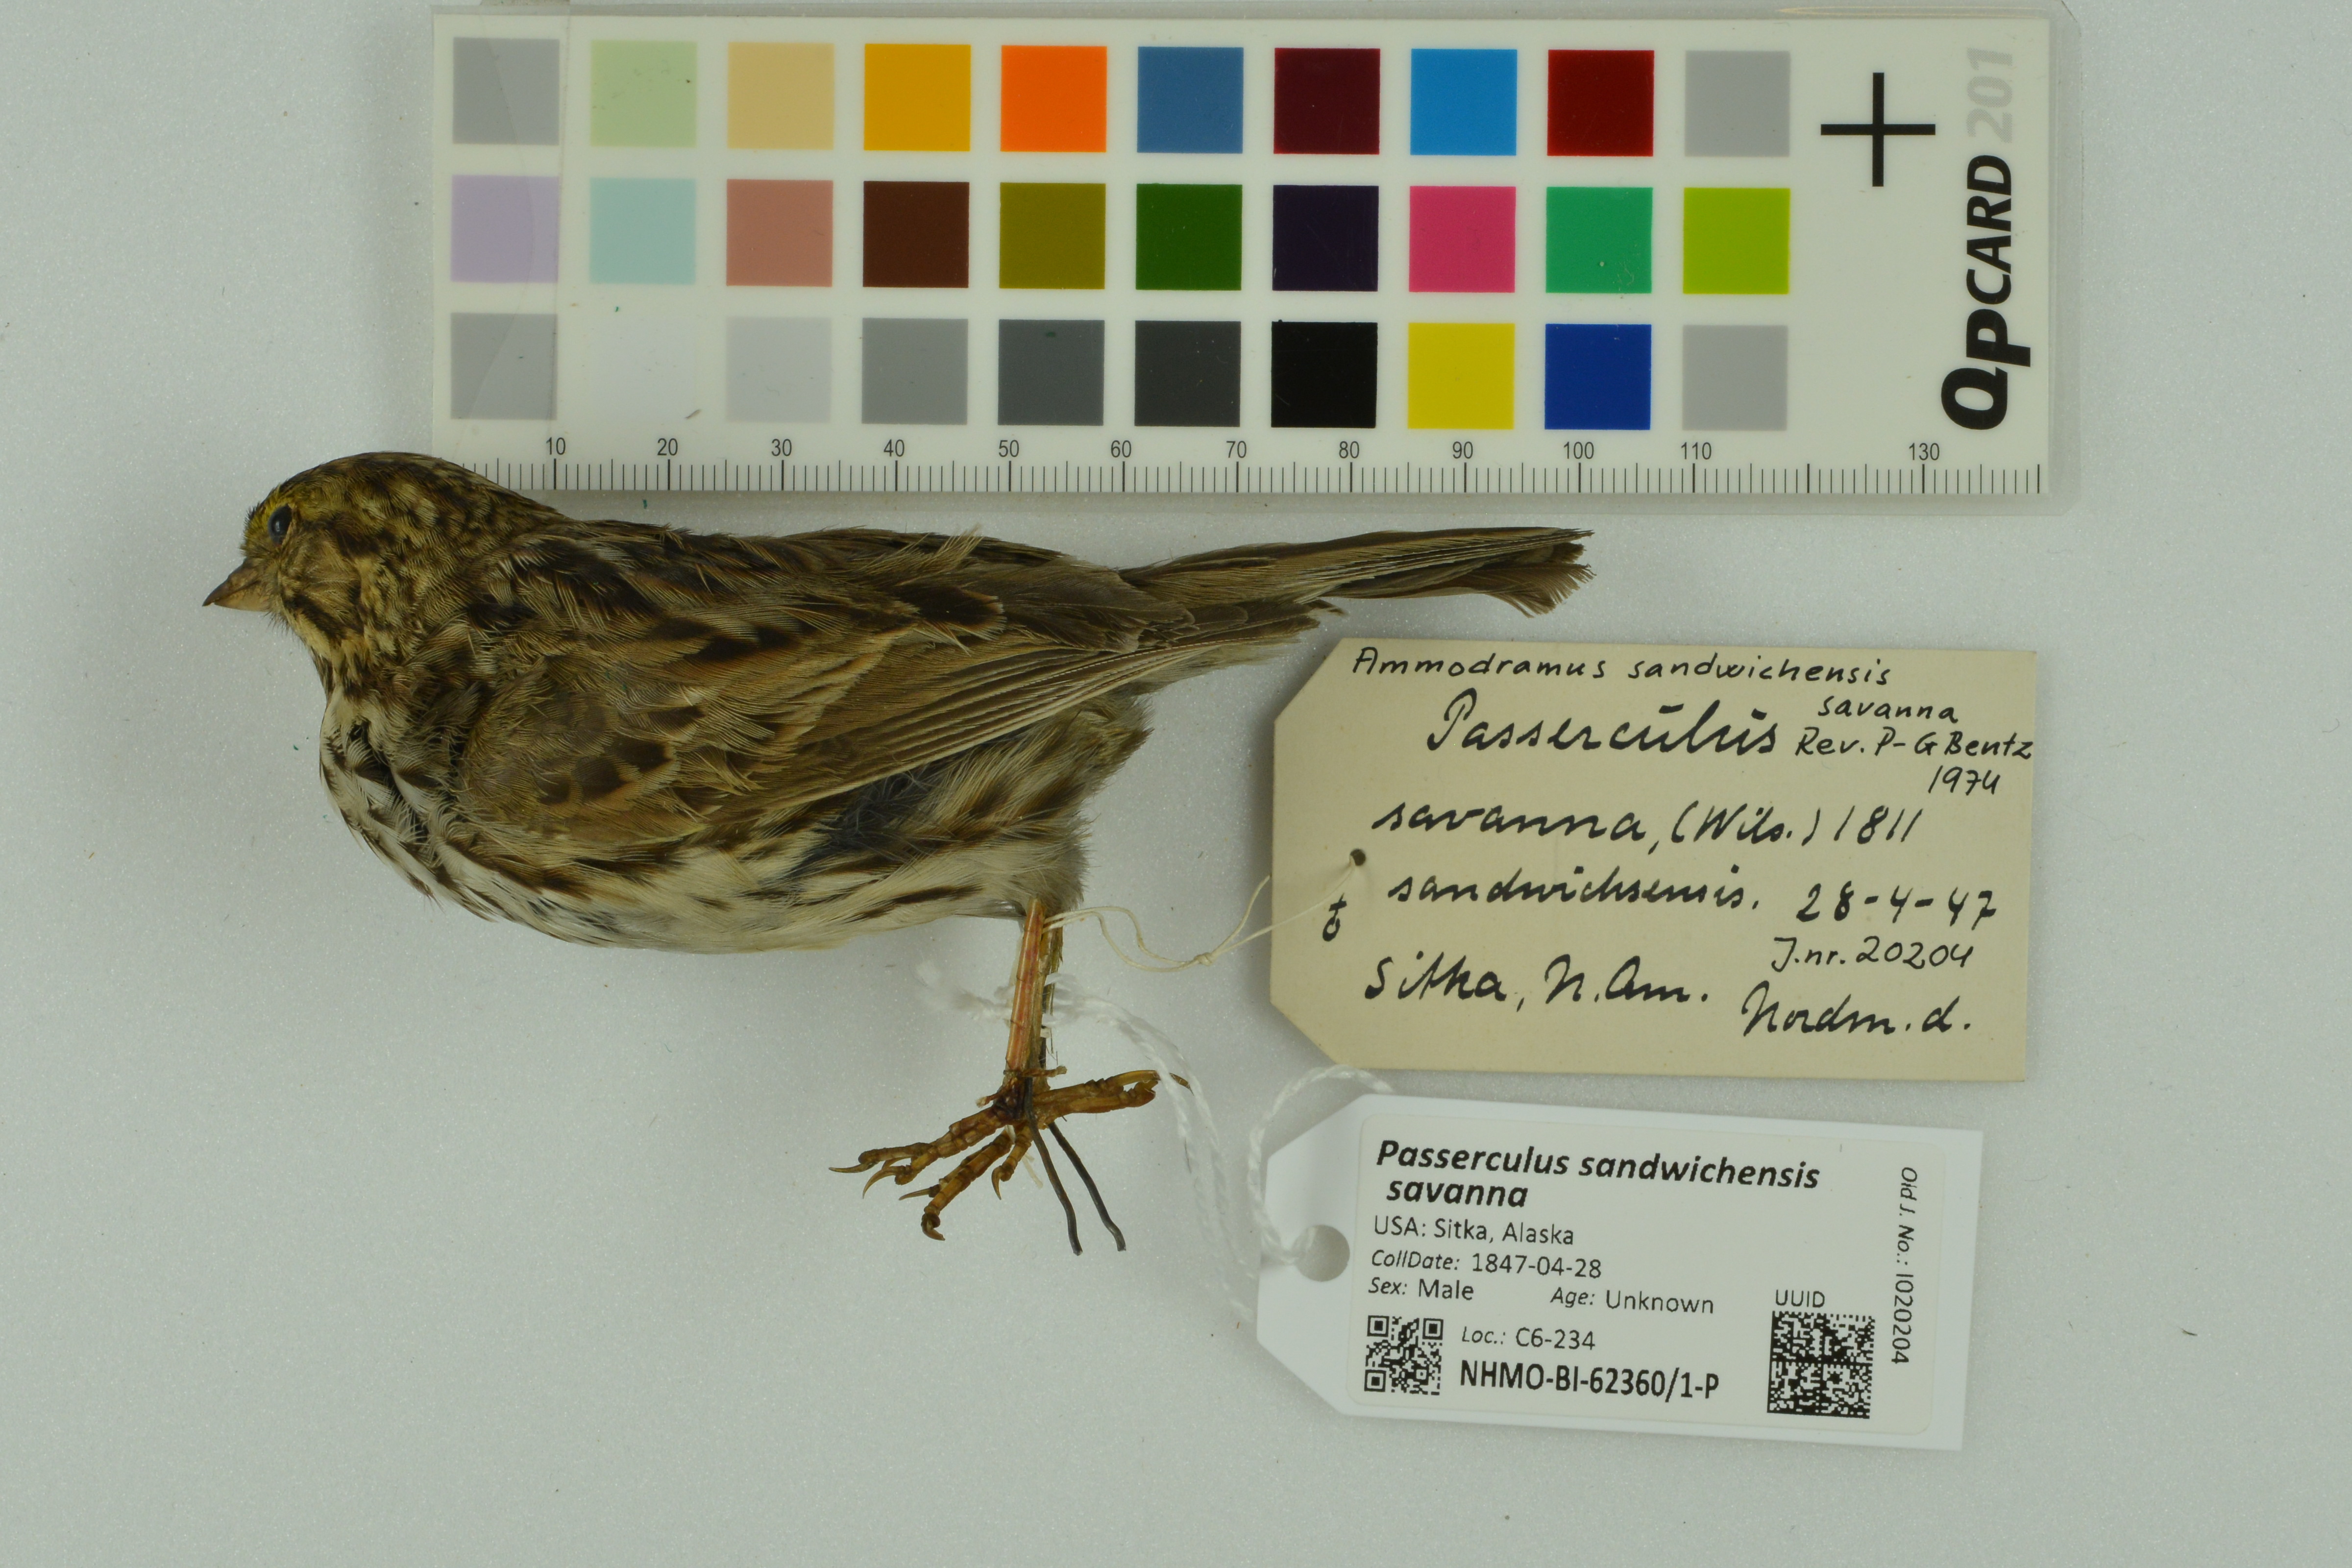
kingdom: Animalia
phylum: Chordata
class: Aves
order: Passeriformes
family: Passerellidae
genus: Passerculus
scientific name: Passerculus sandwichensis
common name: Savannah sparrow
